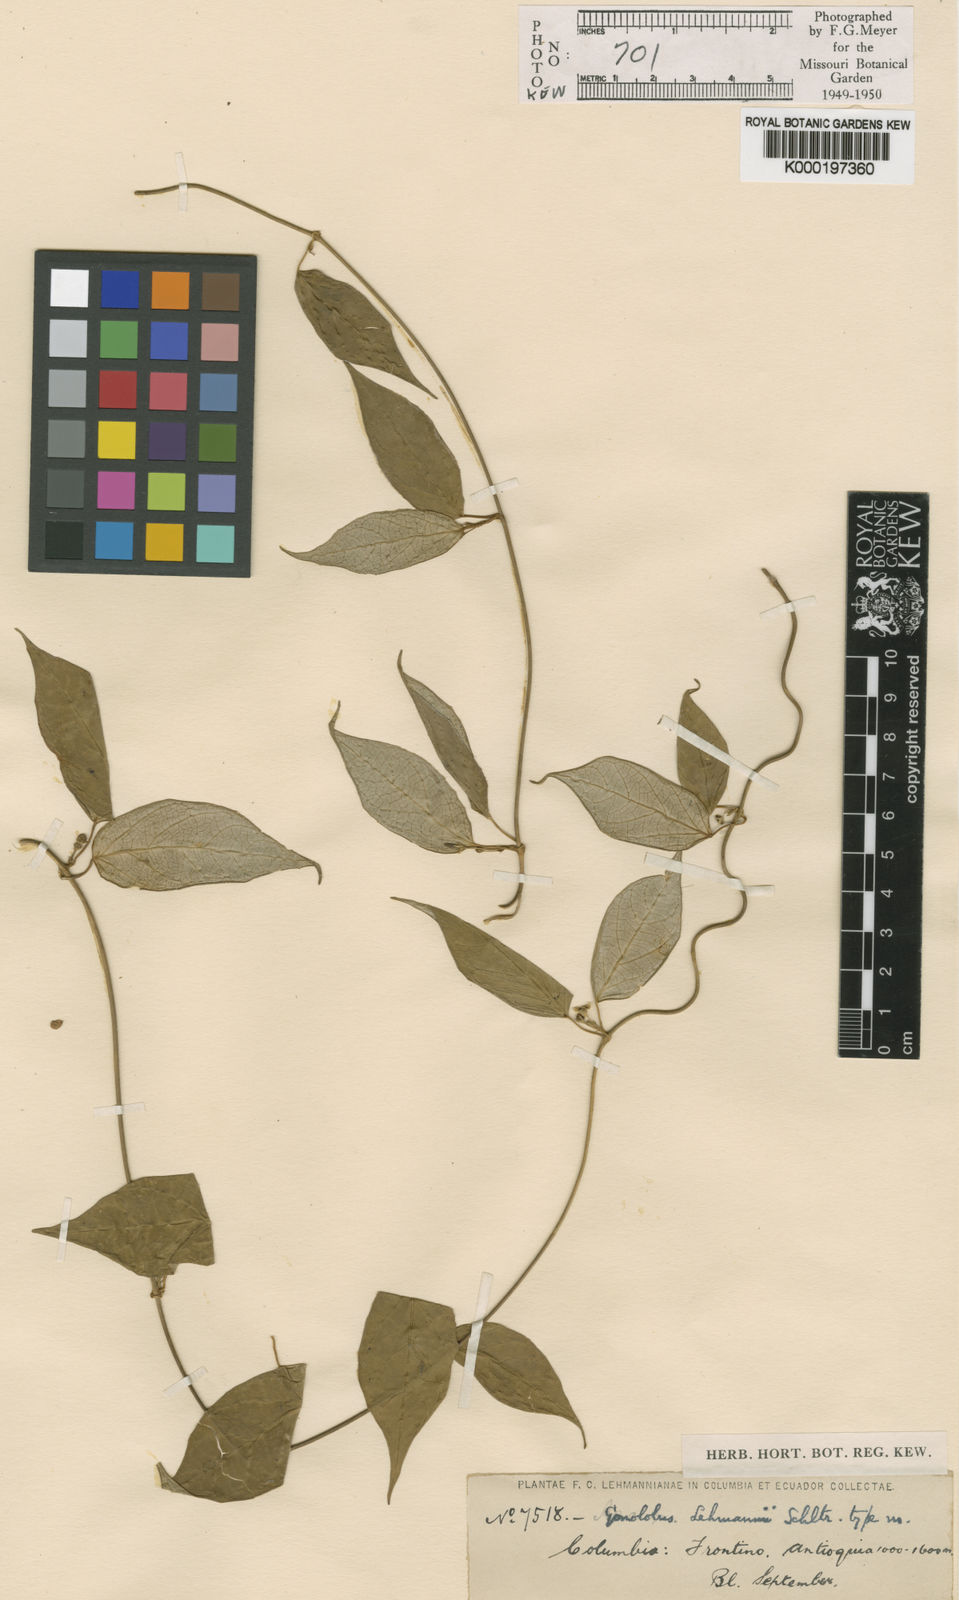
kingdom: Plantae
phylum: Tracheophyta
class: Magnoliopsida
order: Gentianales
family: Apocynaceae
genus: Matelea
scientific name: Matelea lehmannii
